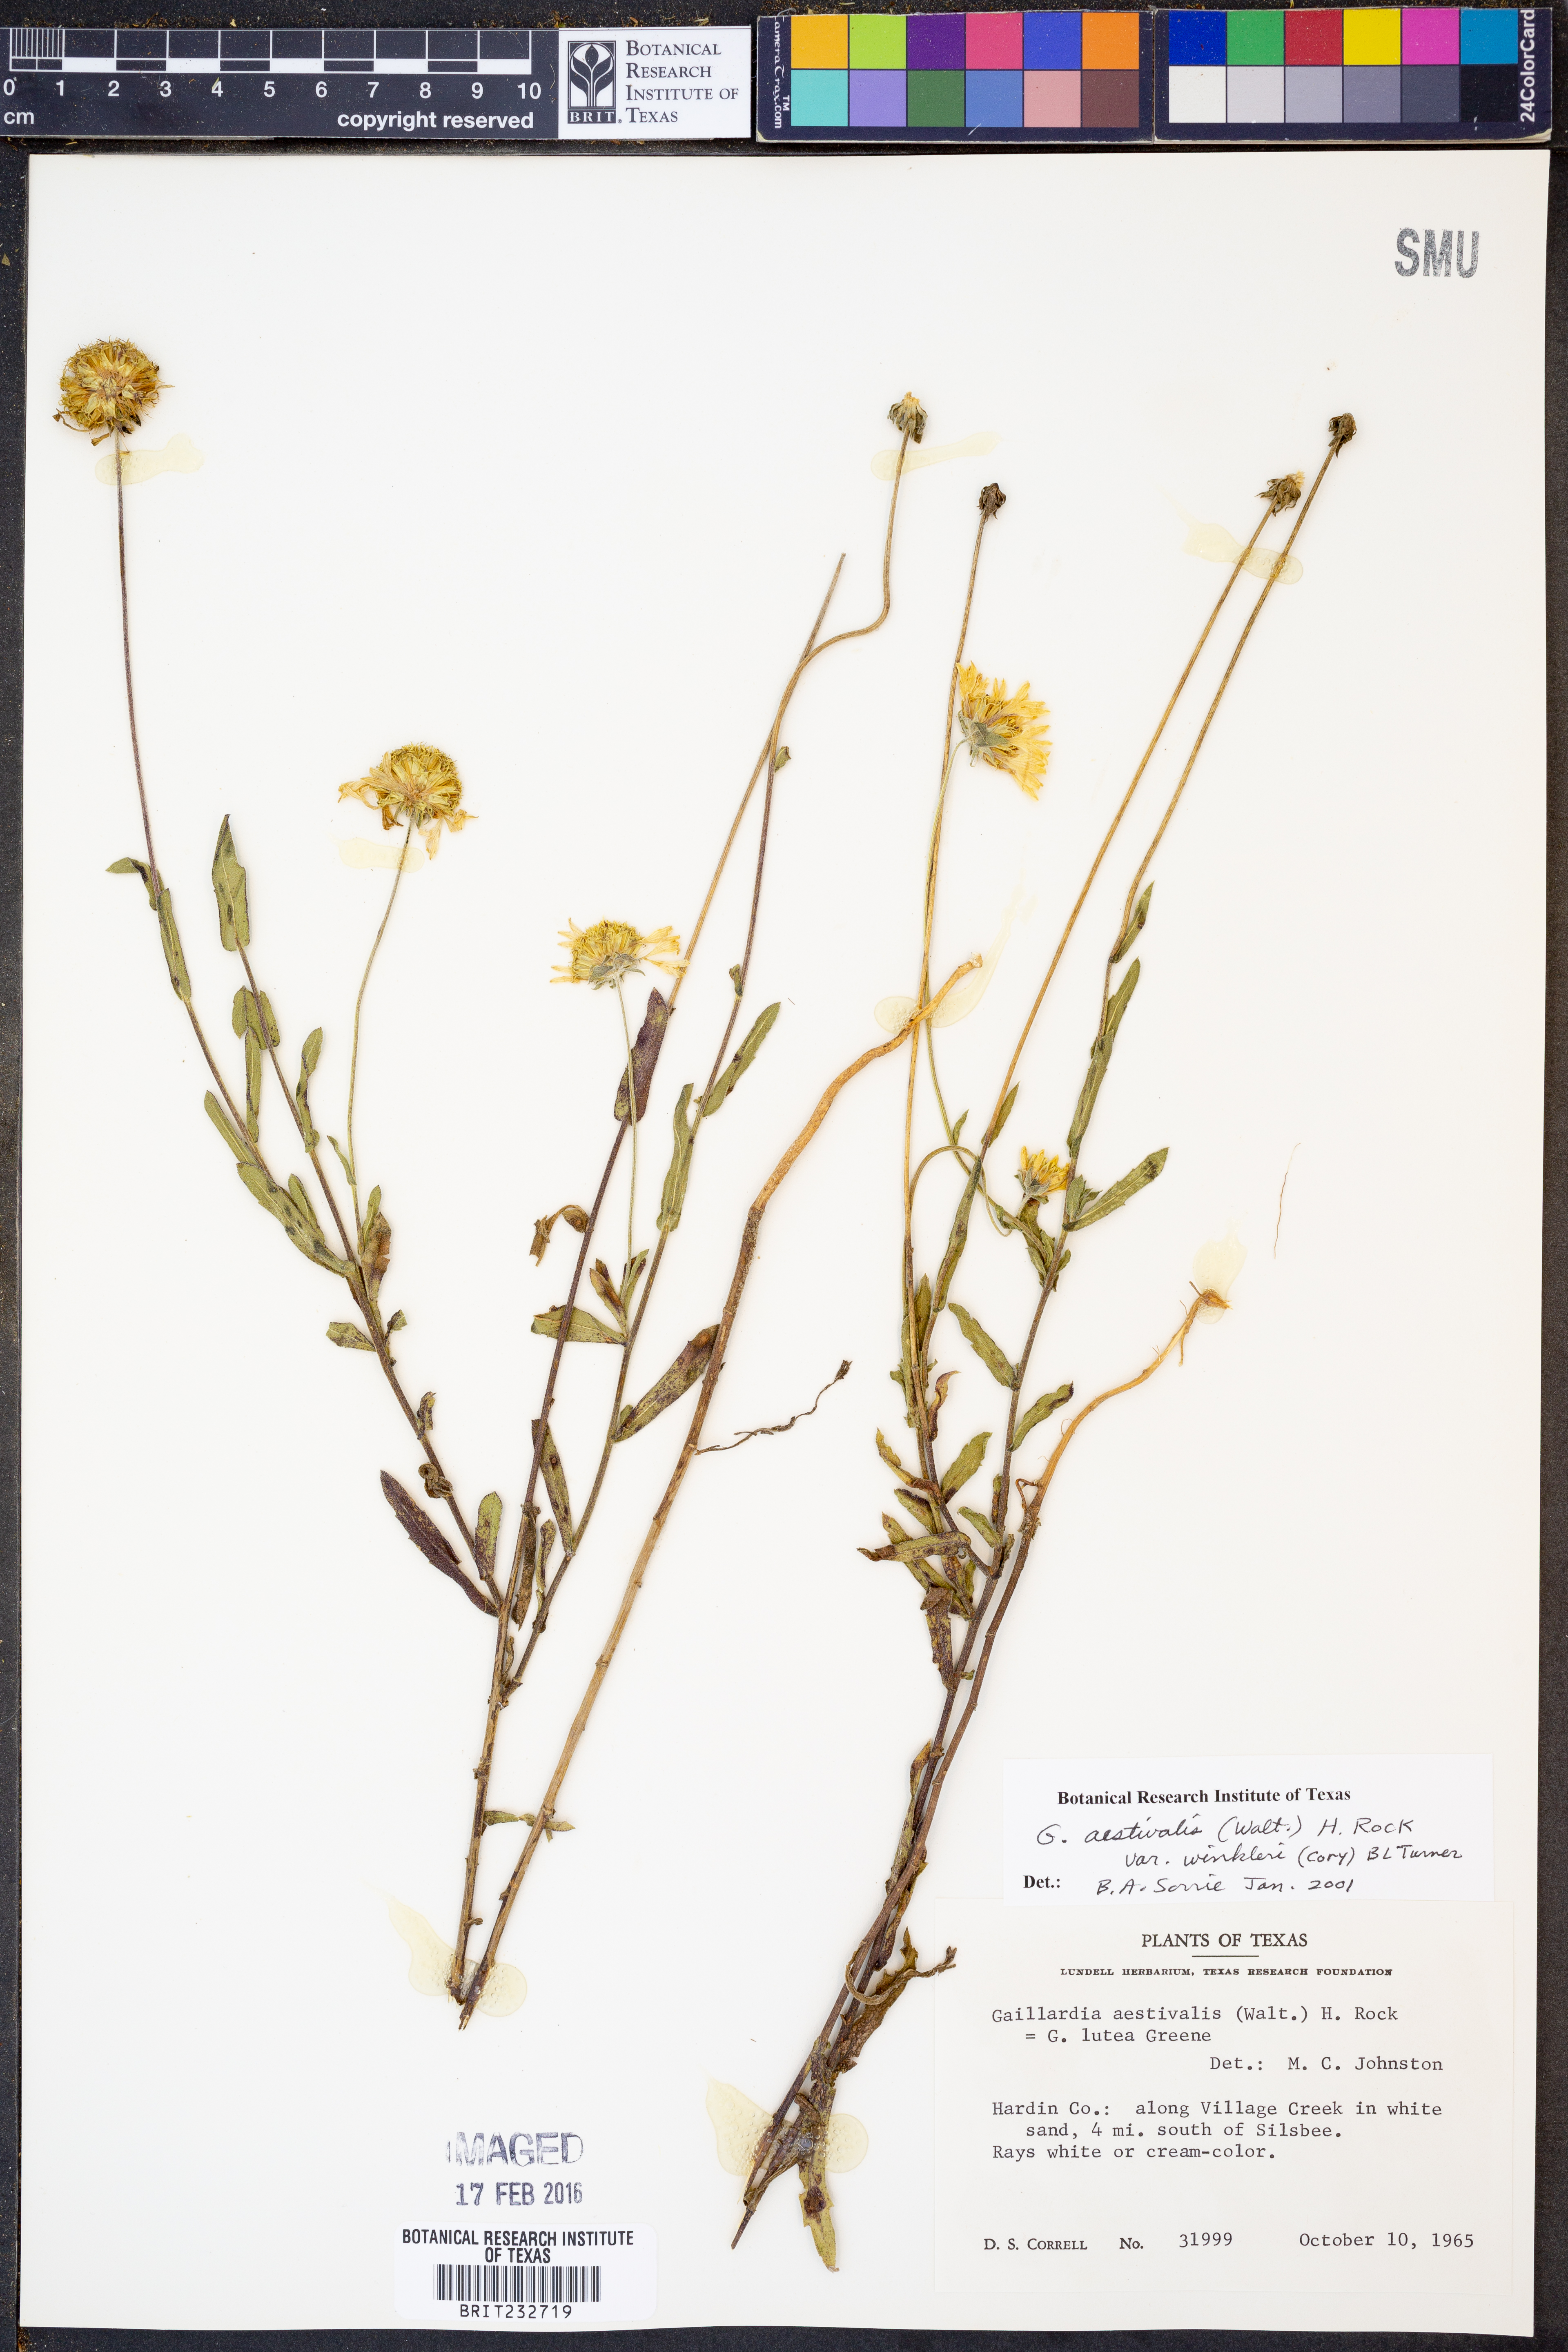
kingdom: Plantae
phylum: Tracheophyta
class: Magnoliopsida
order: Asterales
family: Asteraceae
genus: Gaillardia
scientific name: Gaillardia aestivalis
